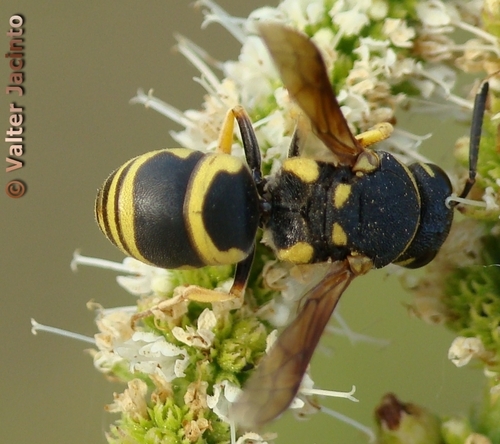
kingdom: Animalia
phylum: Arthropoda
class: Insecta
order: Hymenoptera
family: Eumenidae
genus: Euodynerus
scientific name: Euodynerus dantici
